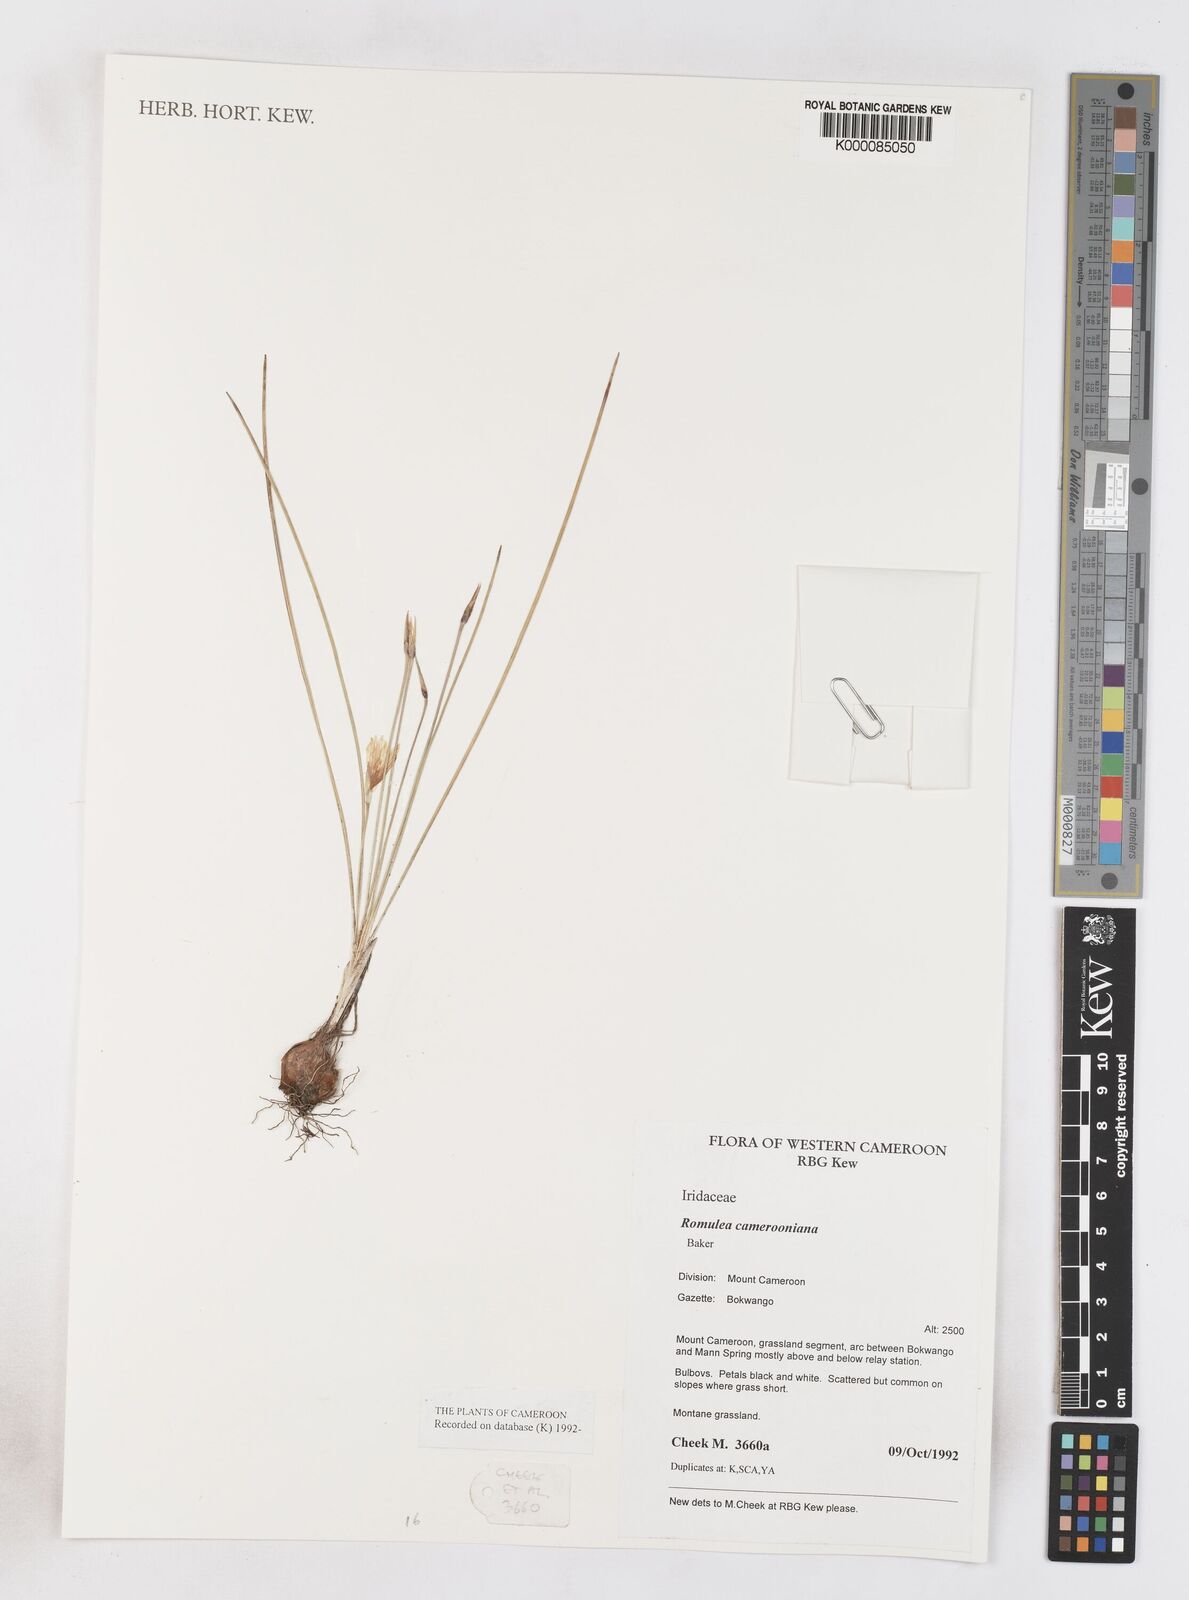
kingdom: Plantae
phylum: Tracheophyta
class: Liliopsida
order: Asparagales
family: Iridaceae
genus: Romulea
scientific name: Romulea camerooniana
